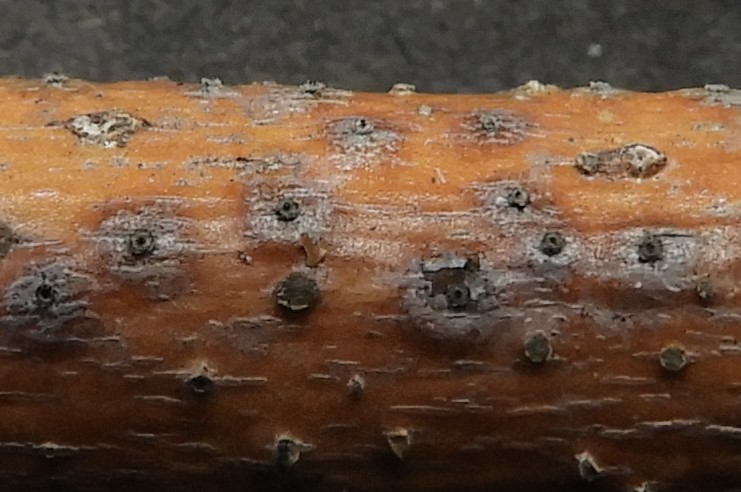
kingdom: Fungi
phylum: Ascomycota
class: Dothideomycetes
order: Botryosphaeriales
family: Botryosphaeriaceae
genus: Diplodia
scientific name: Diplodia salicina
